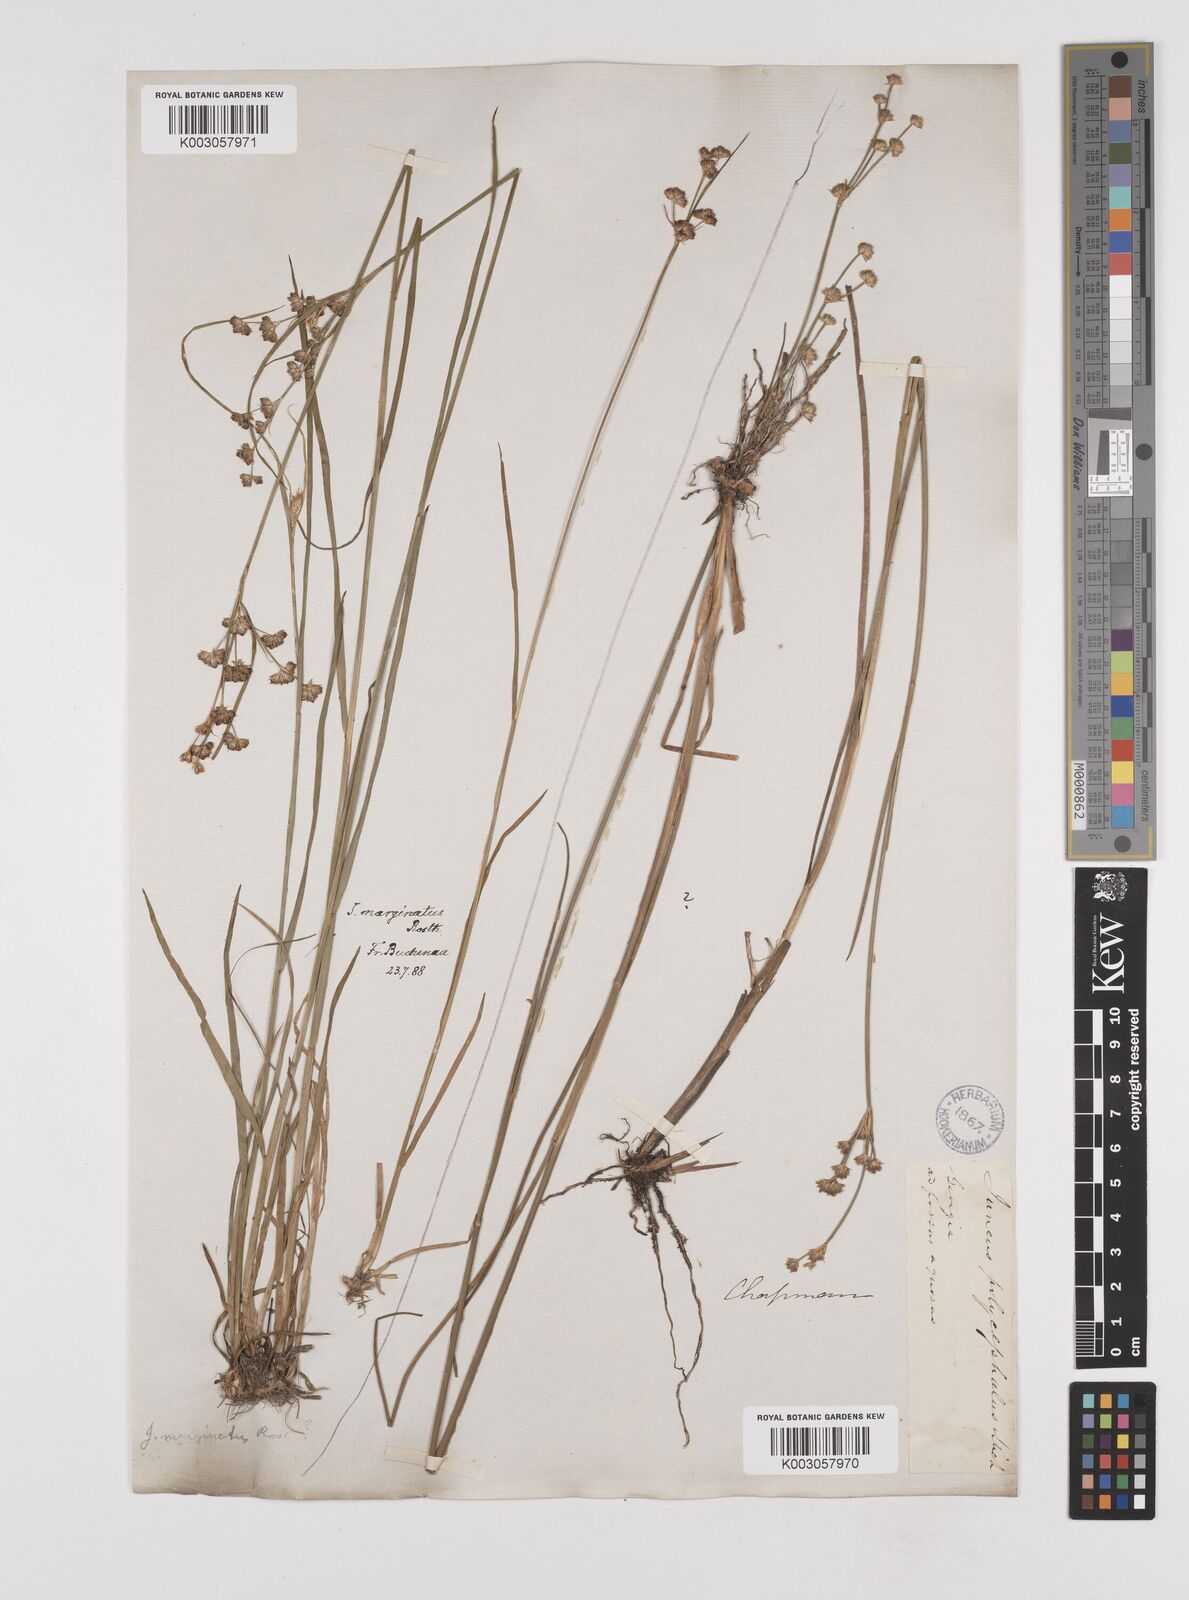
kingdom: Plantae
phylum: Tracheophyta
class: Liliopsida
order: Poales
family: Juncaceae
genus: Juncus
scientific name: Juncus marginatus
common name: Grass-leaf rush
